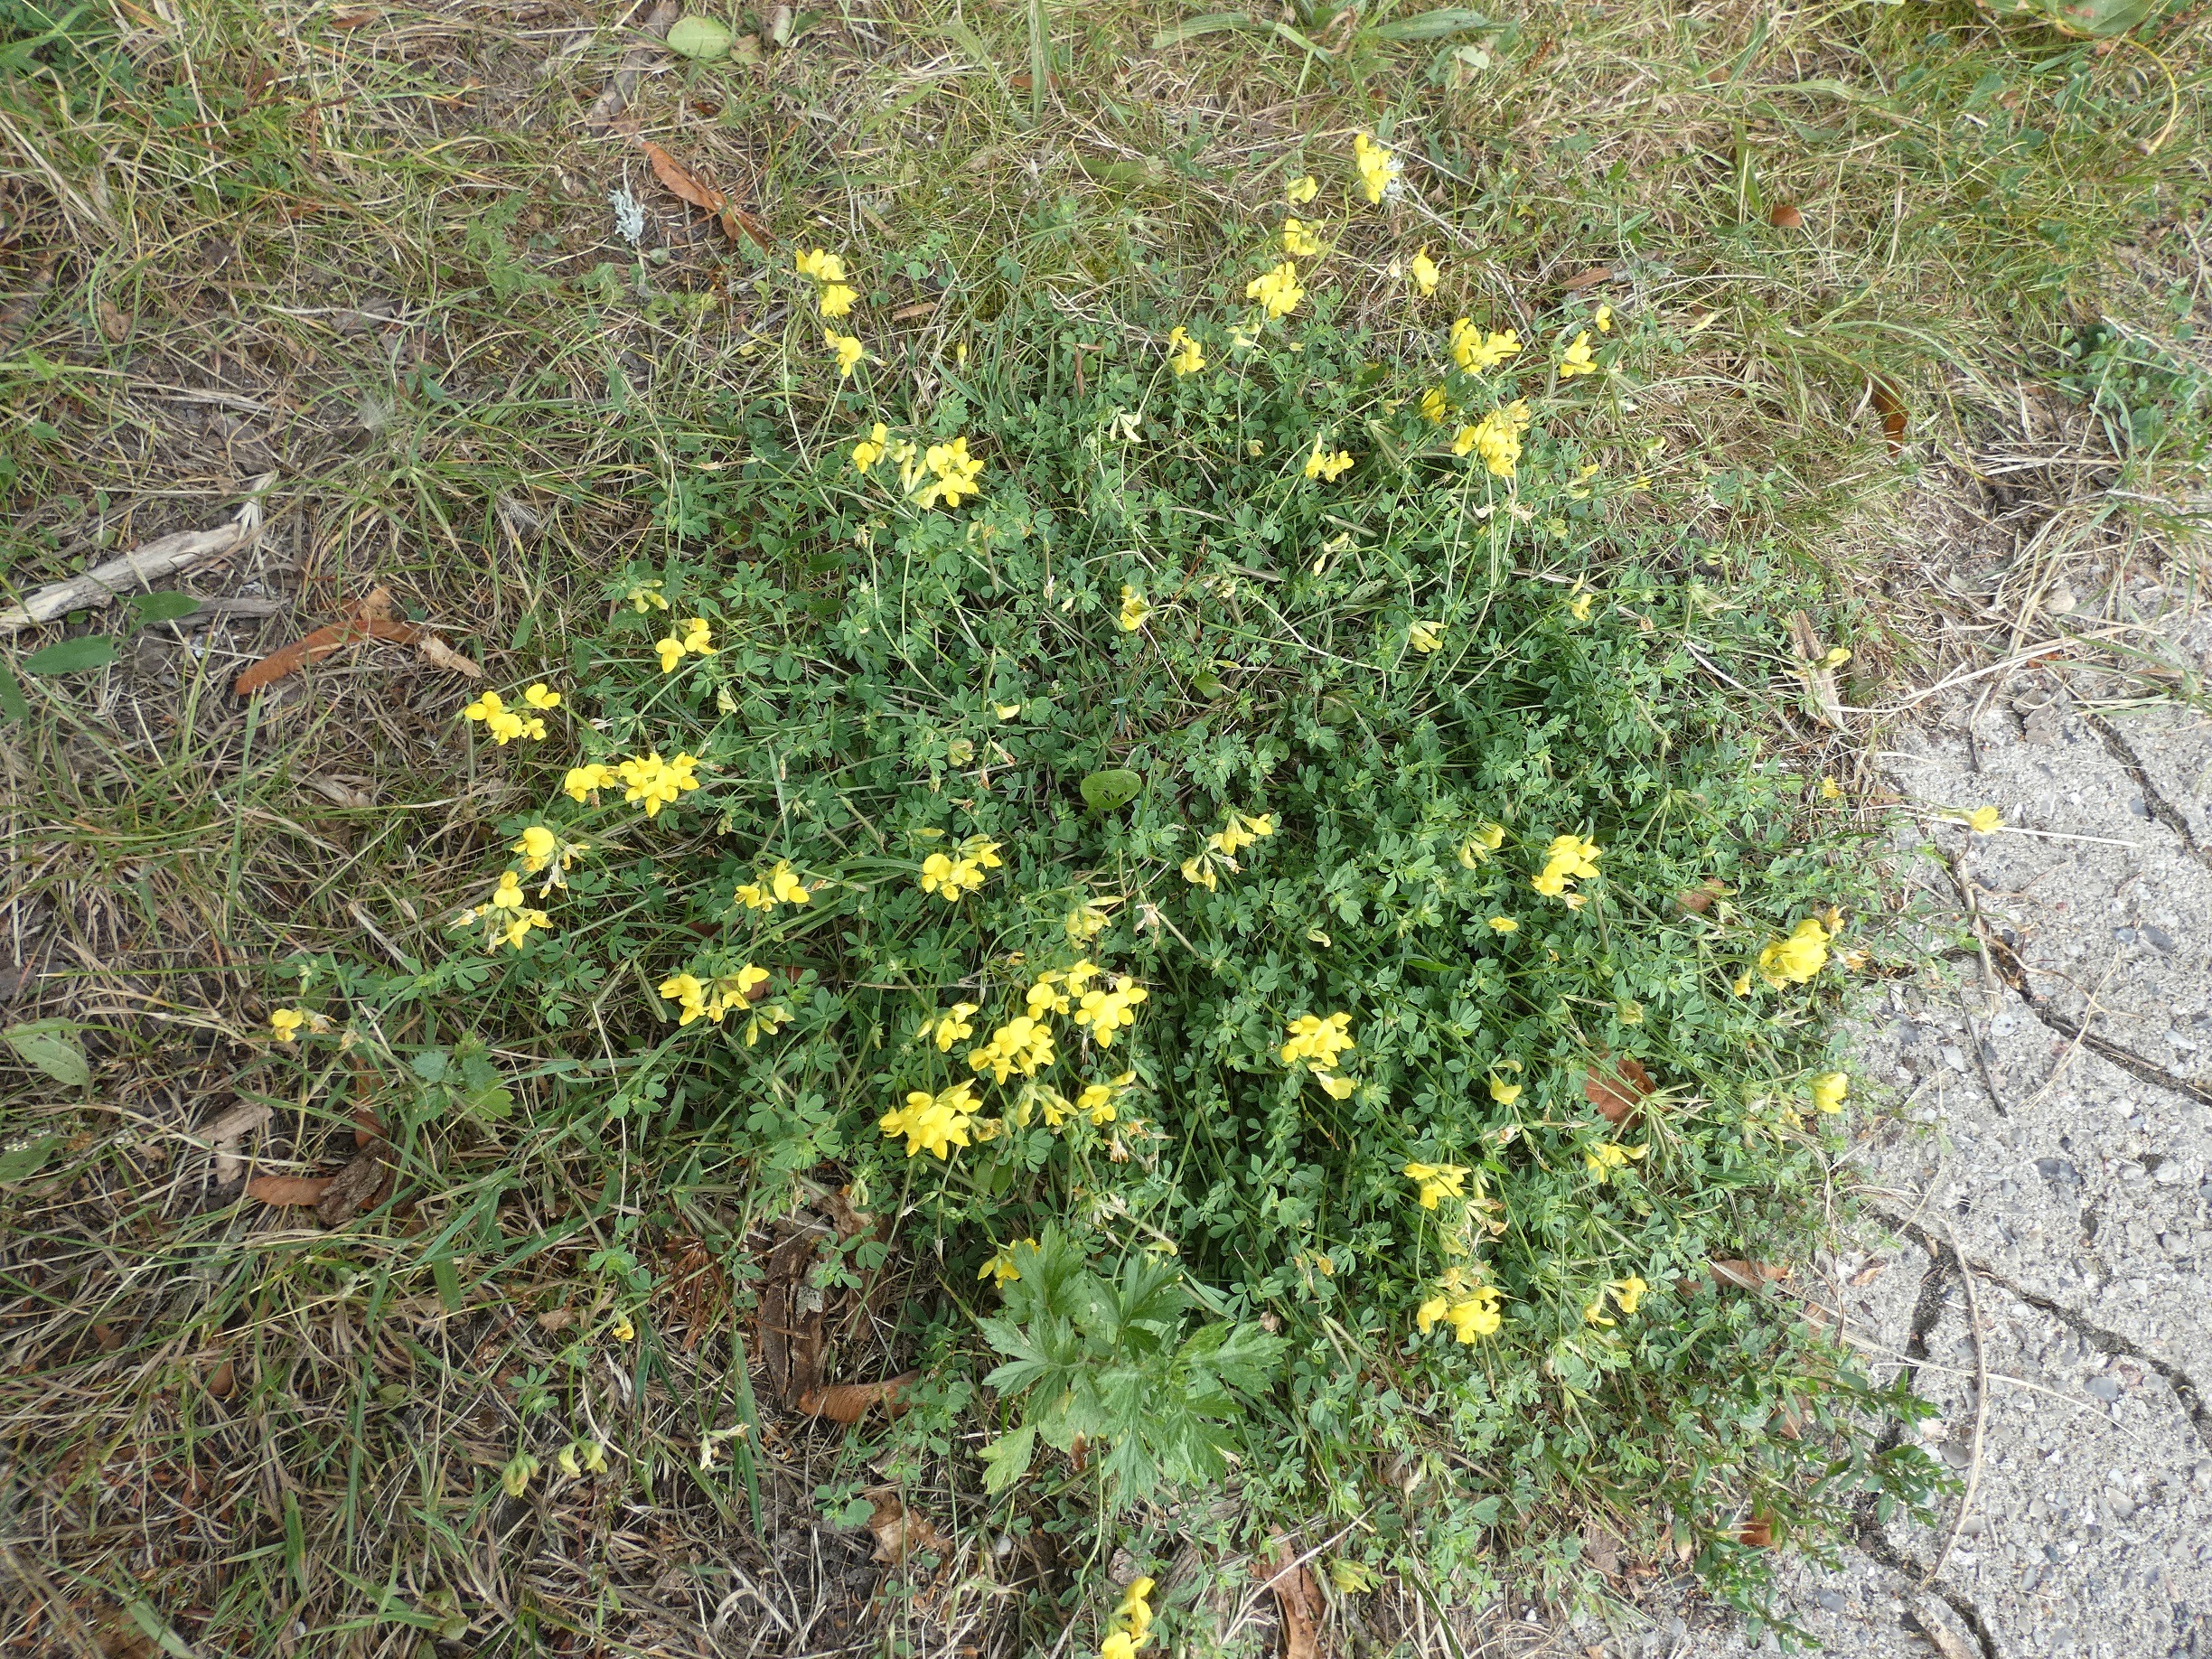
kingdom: Plantae
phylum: Tracheophyta
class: Magnoliopsida
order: Fabales
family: Fabaceae
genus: Lotus
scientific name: Lotus corniculatus
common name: Almindelig kællingetand
